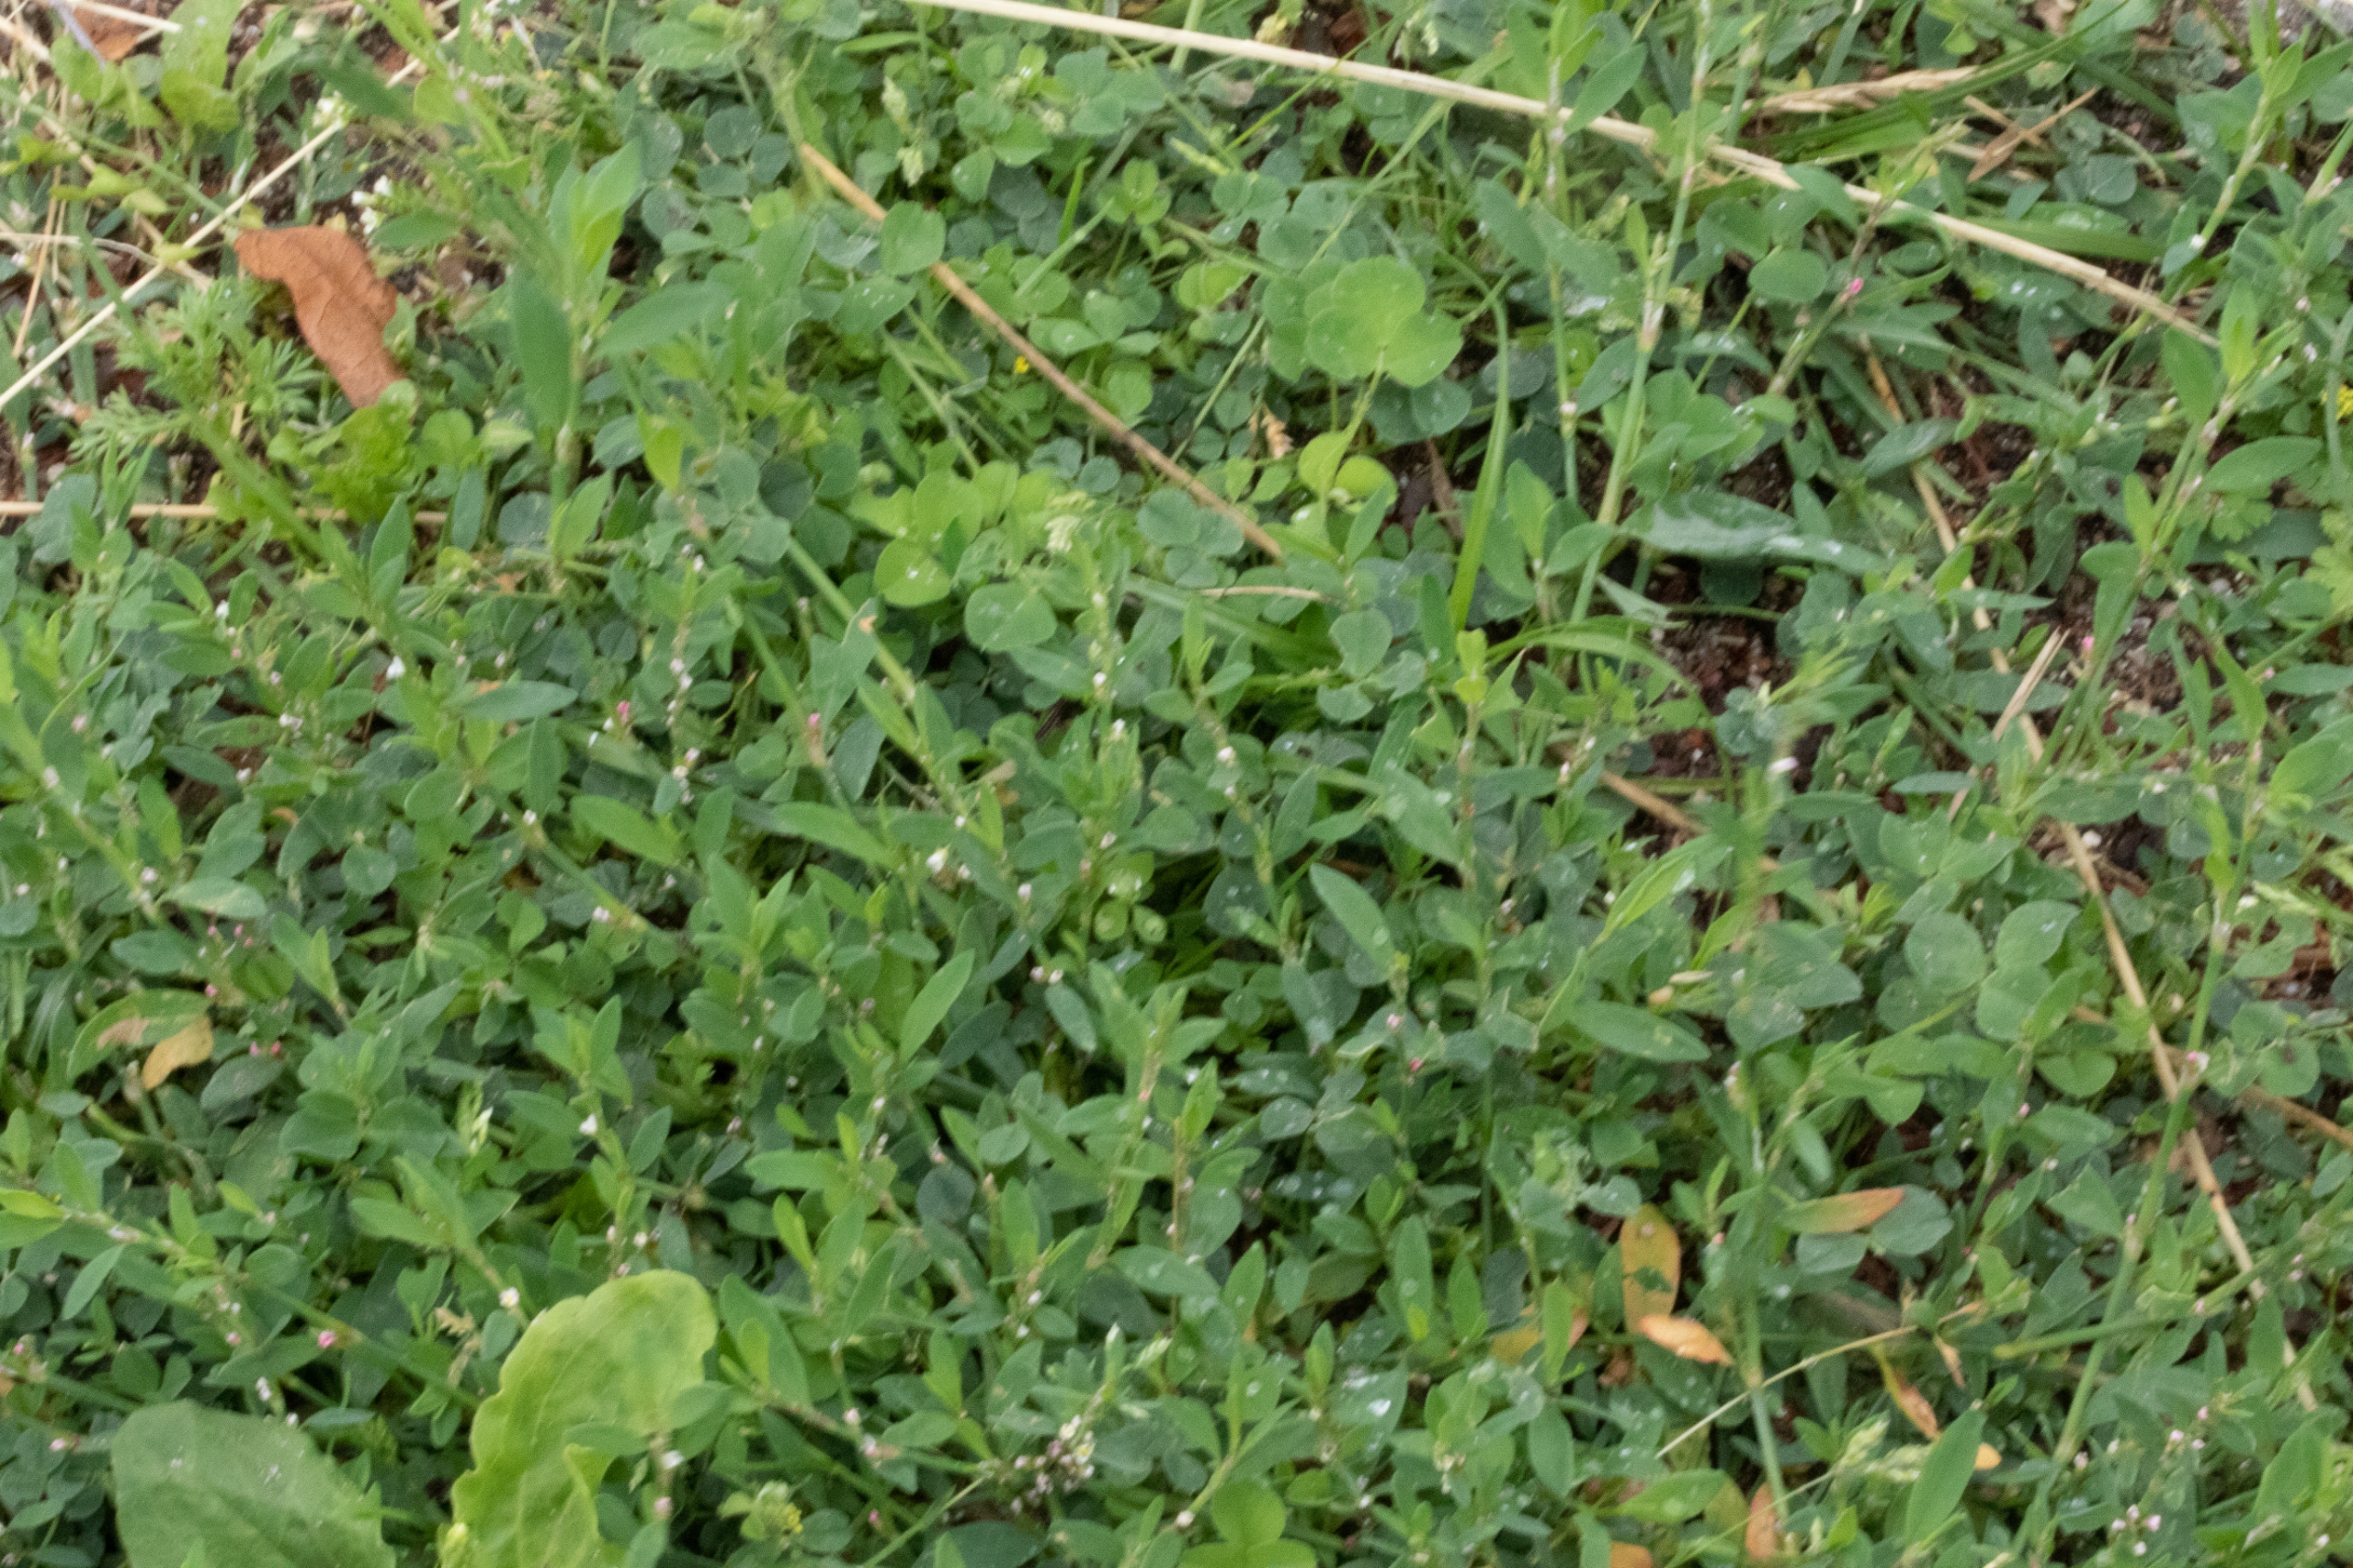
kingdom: Plantae
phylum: Tracheophyta
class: Magnoliopsida
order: Caryophyllales
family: Polygonaceae
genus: Polygonum
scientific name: Polygonum arenastrum
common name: Liggende vej-pileurt
